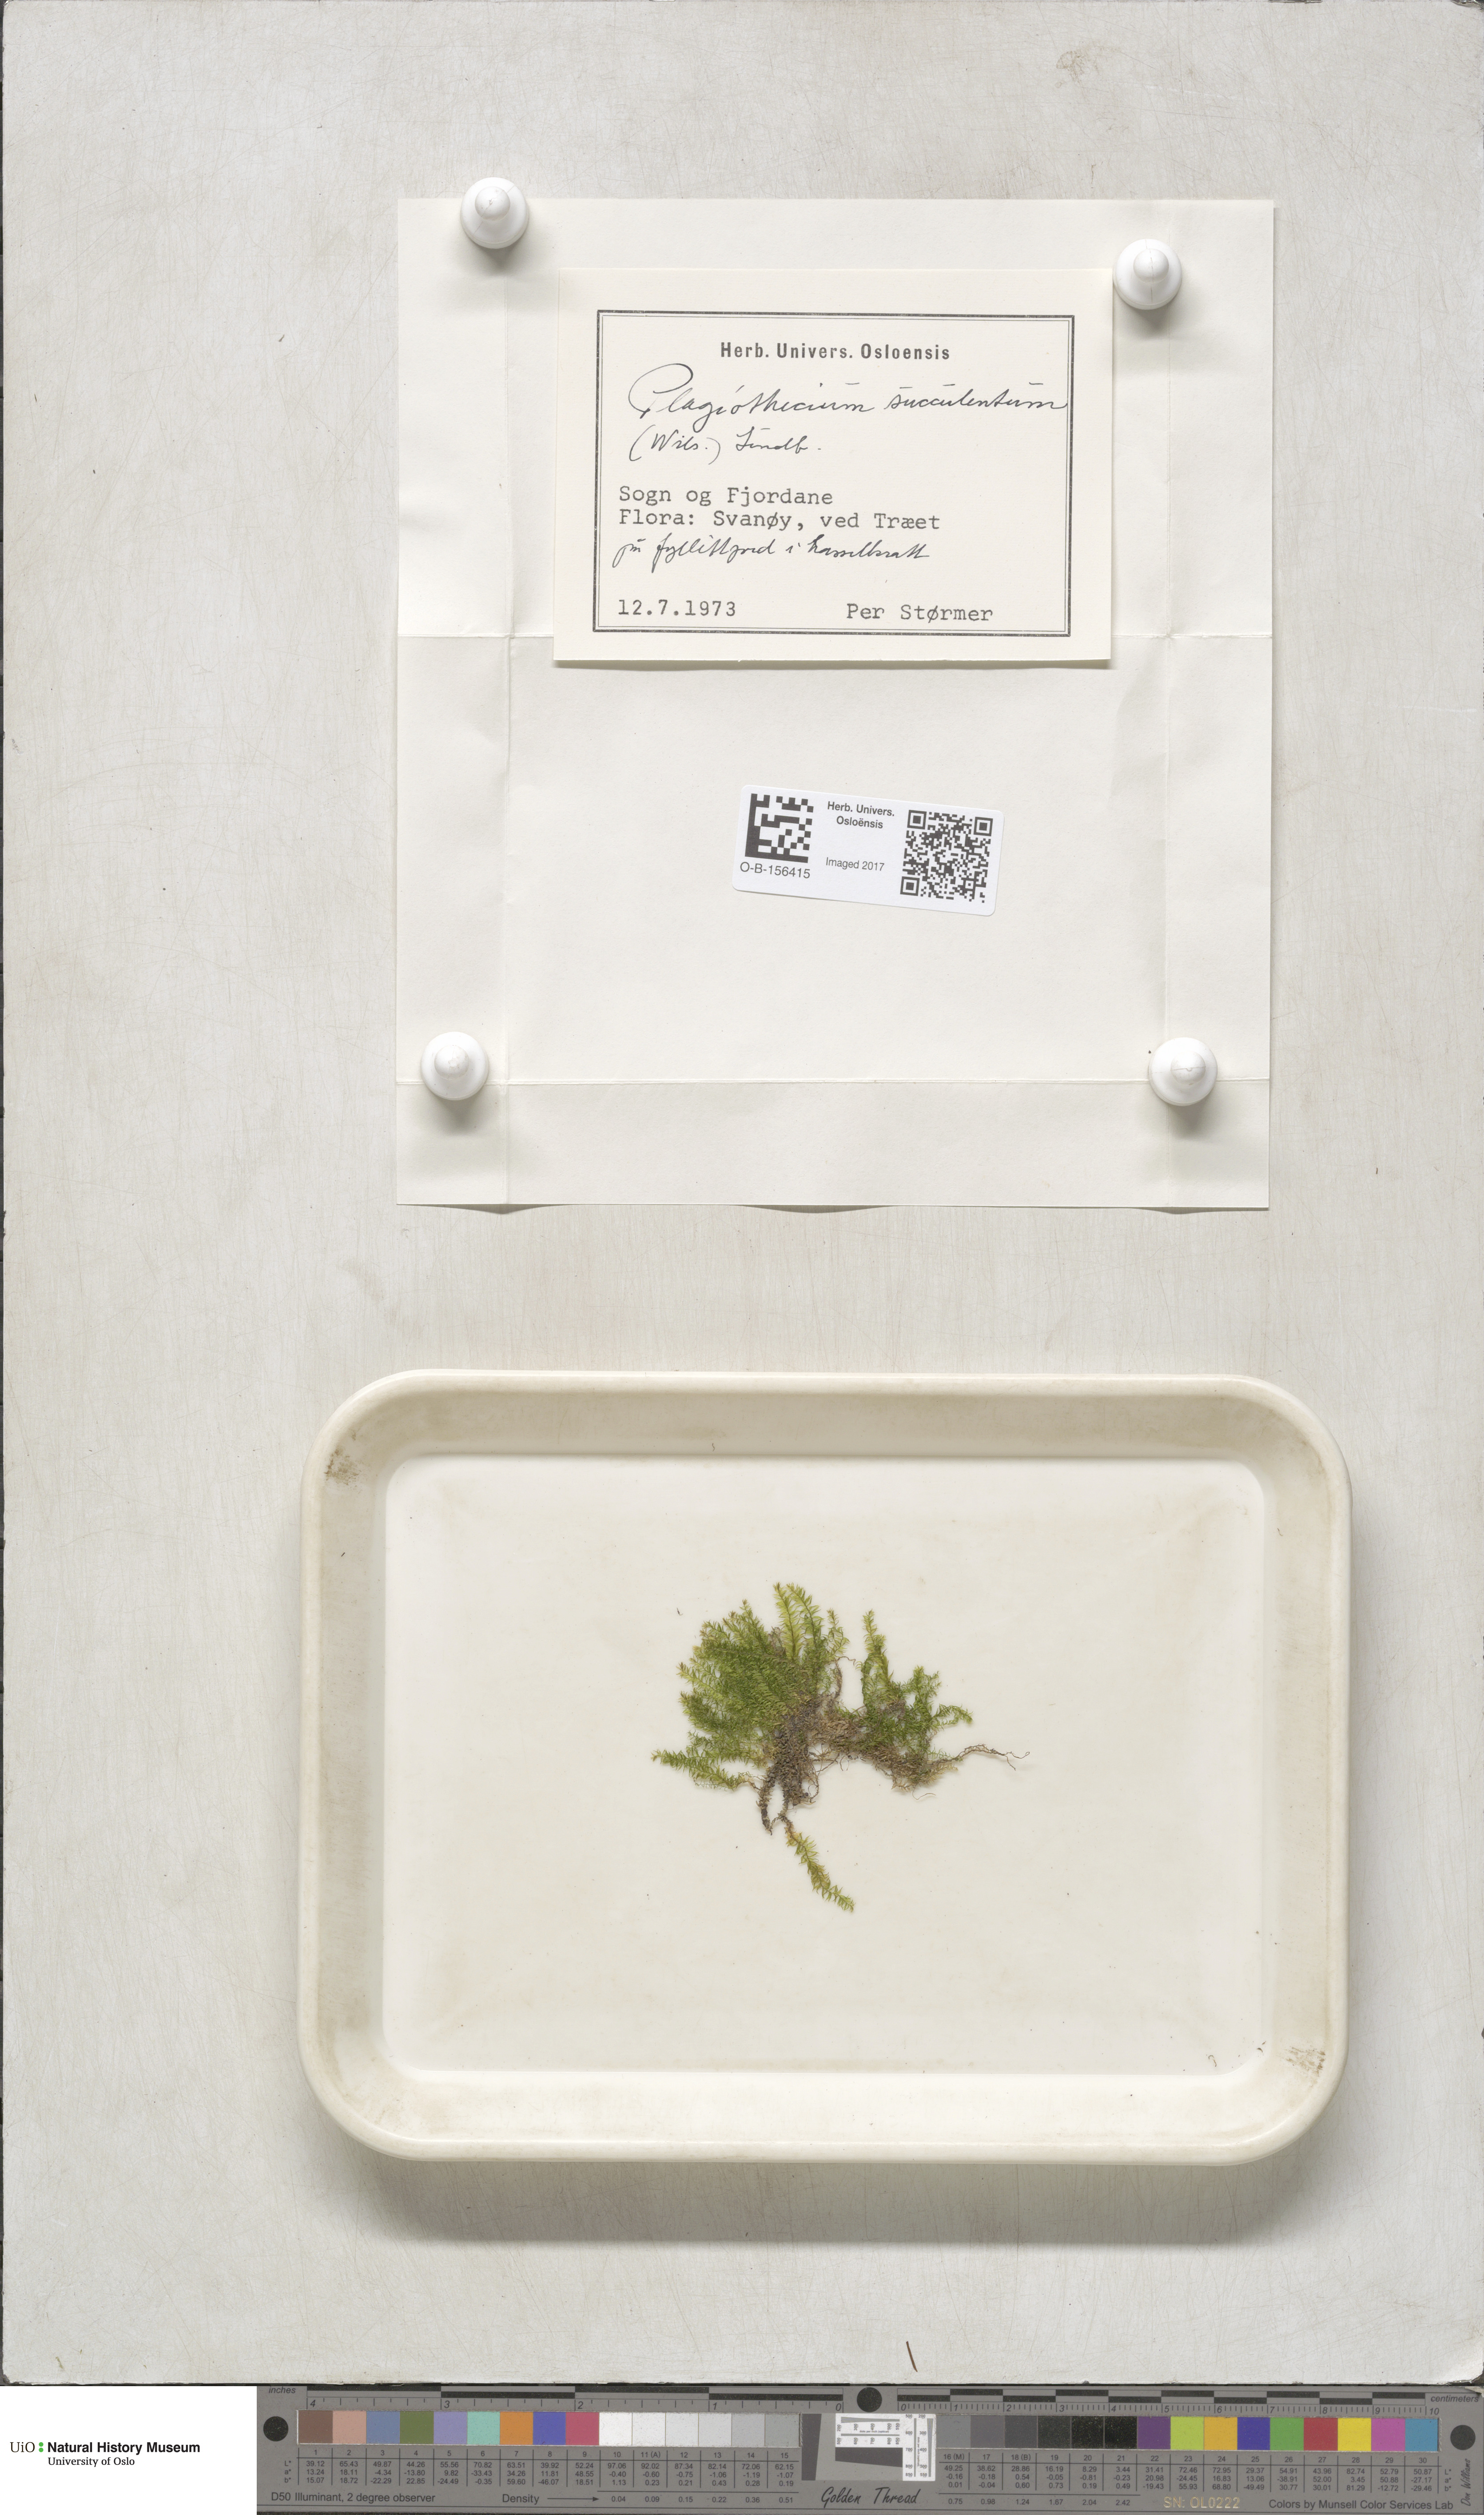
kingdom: Plantae
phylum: Bryophyta
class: Bryopsida
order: Hypnales
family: Plagiotheciaceae
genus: Plagiothecium
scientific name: Plagiothecium nemorale
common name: Woodsy silk-moss
